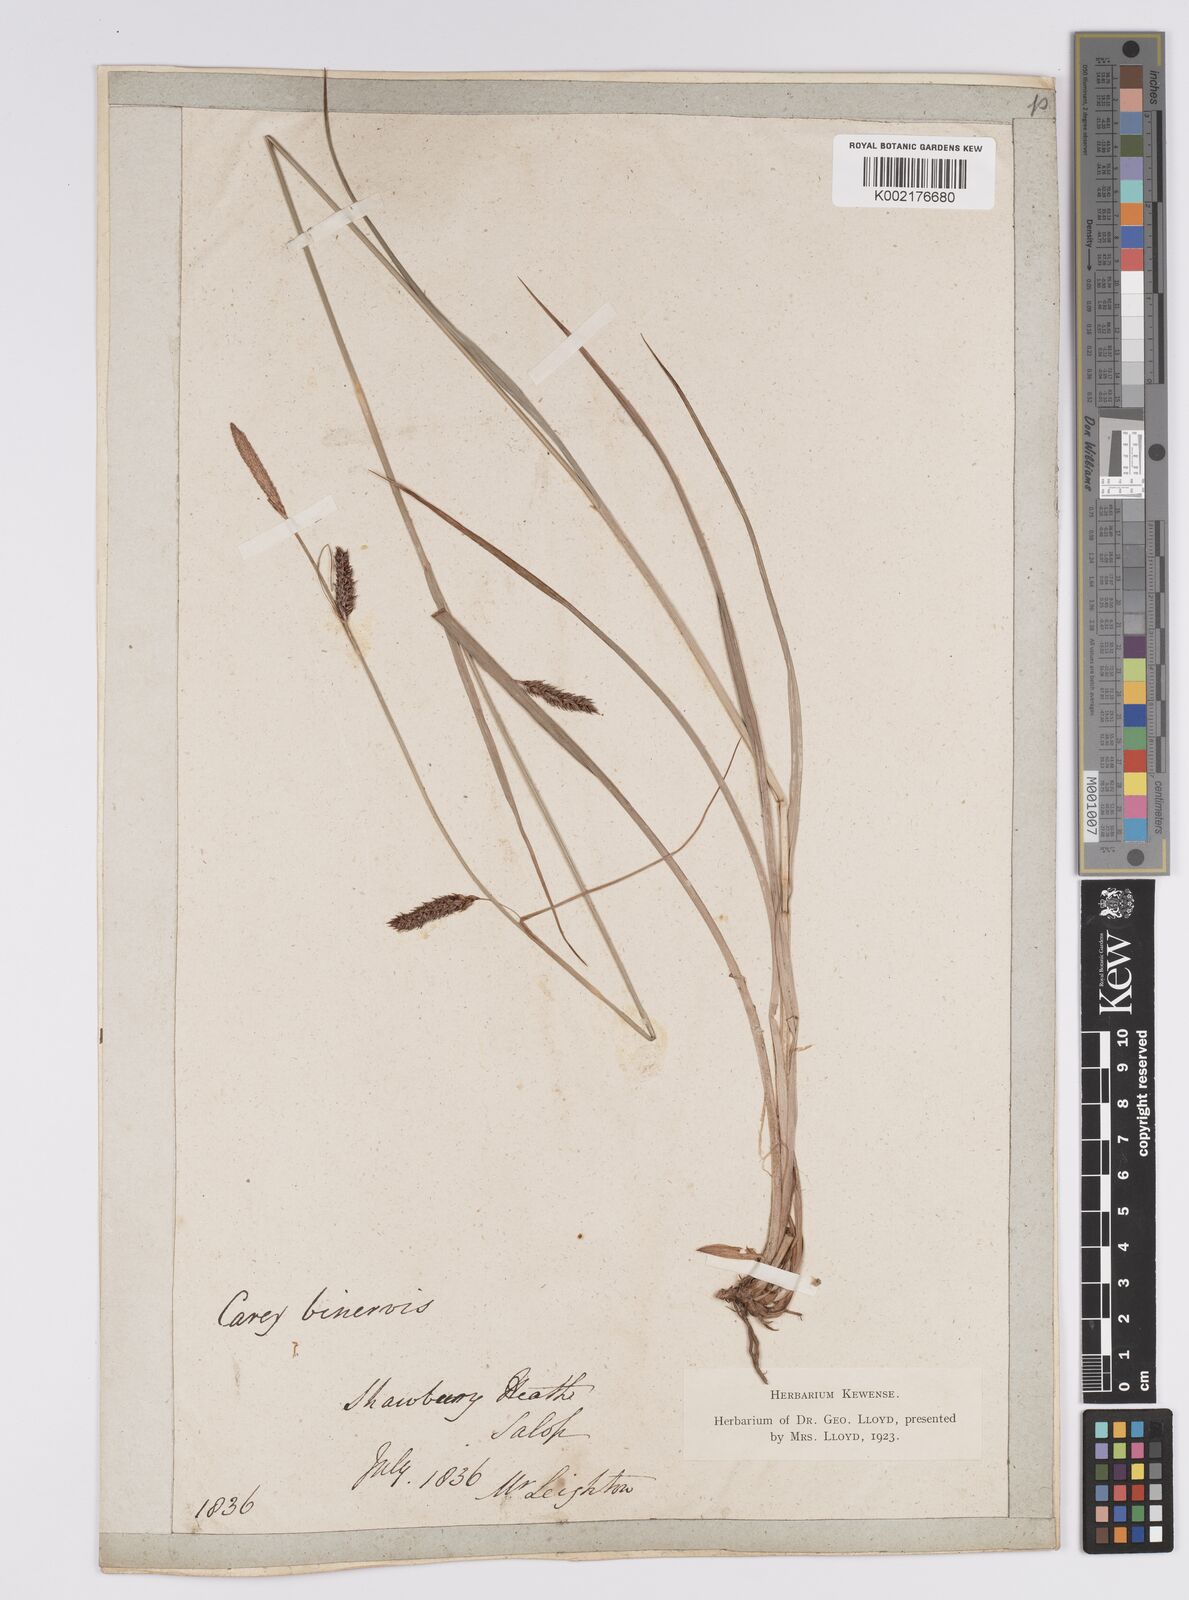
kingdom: Plantae
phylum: Tracheophyta
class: Liliopsida
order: Poales
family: Cyperaceae
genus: Carex
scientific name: Carex binervis
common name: Green-ribbed sedge
